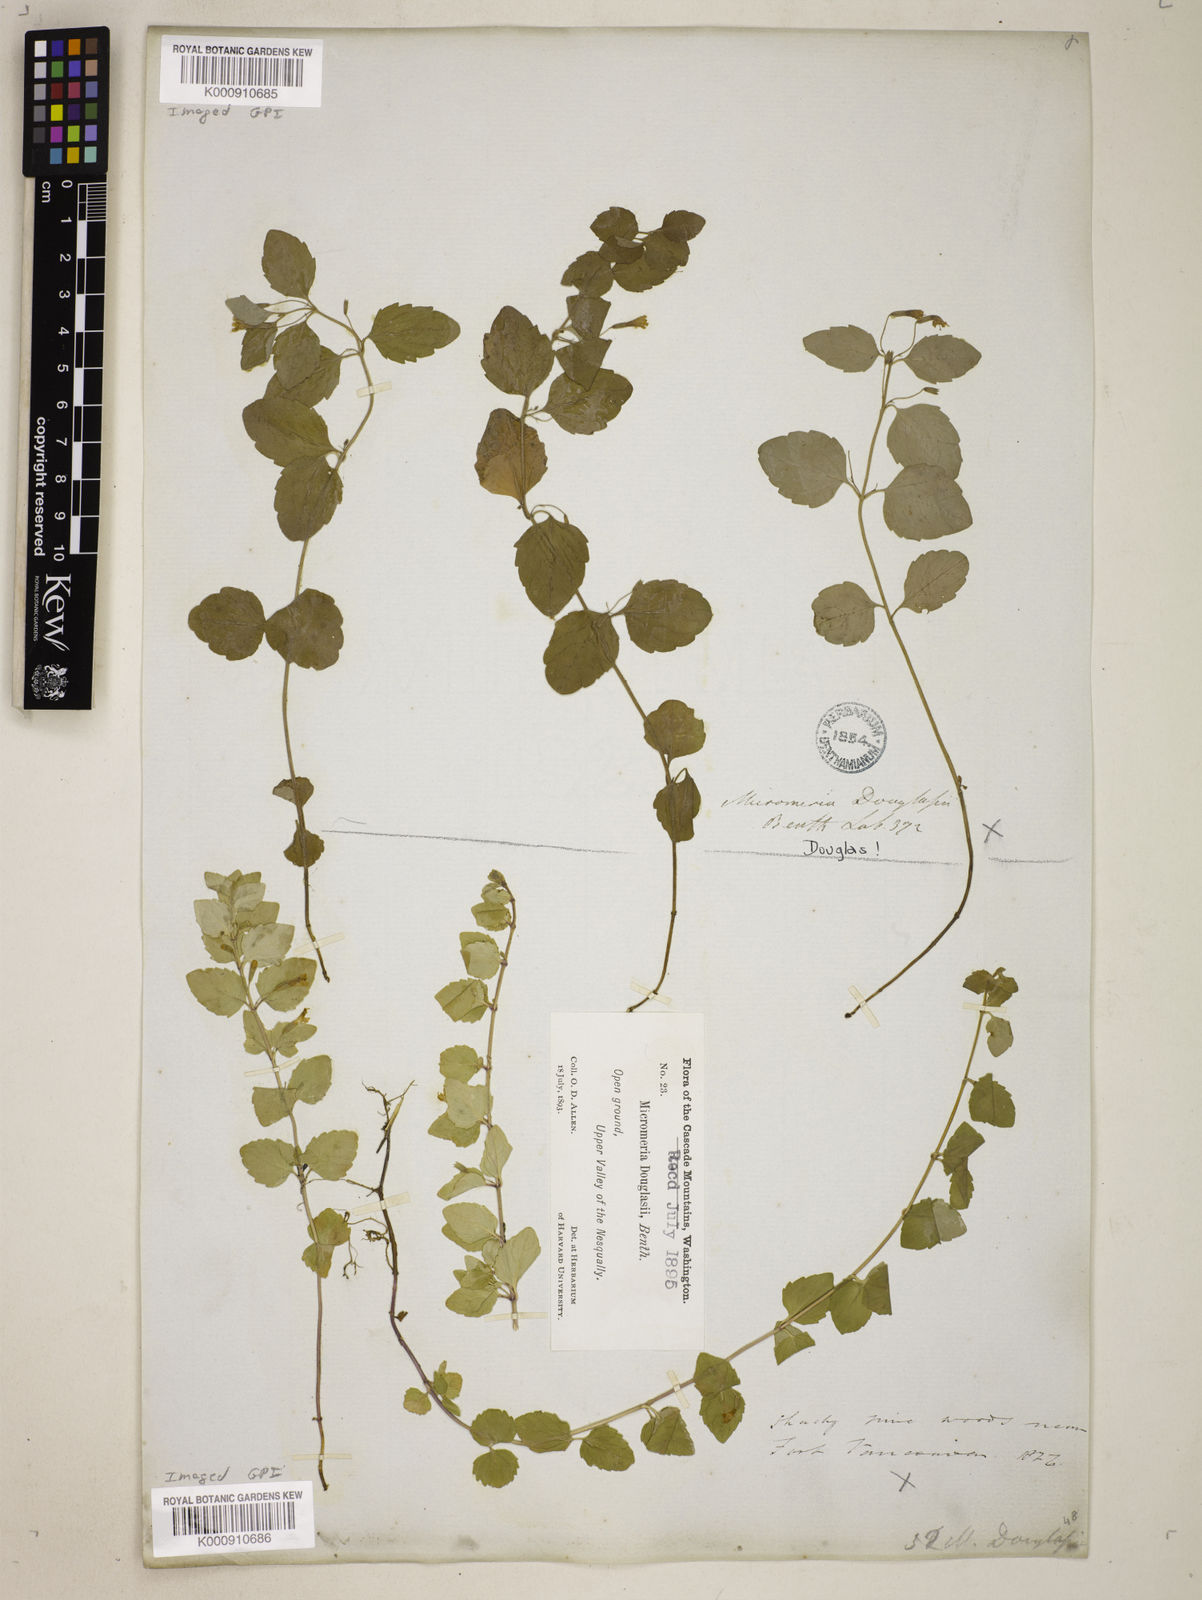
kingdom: Plantae
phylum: Tracheophyta
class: Magnoliopsida
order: Lamiales
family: Lamiaceae
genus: Micromeria
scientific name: Micromeria douglasii
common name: Yerba buena
